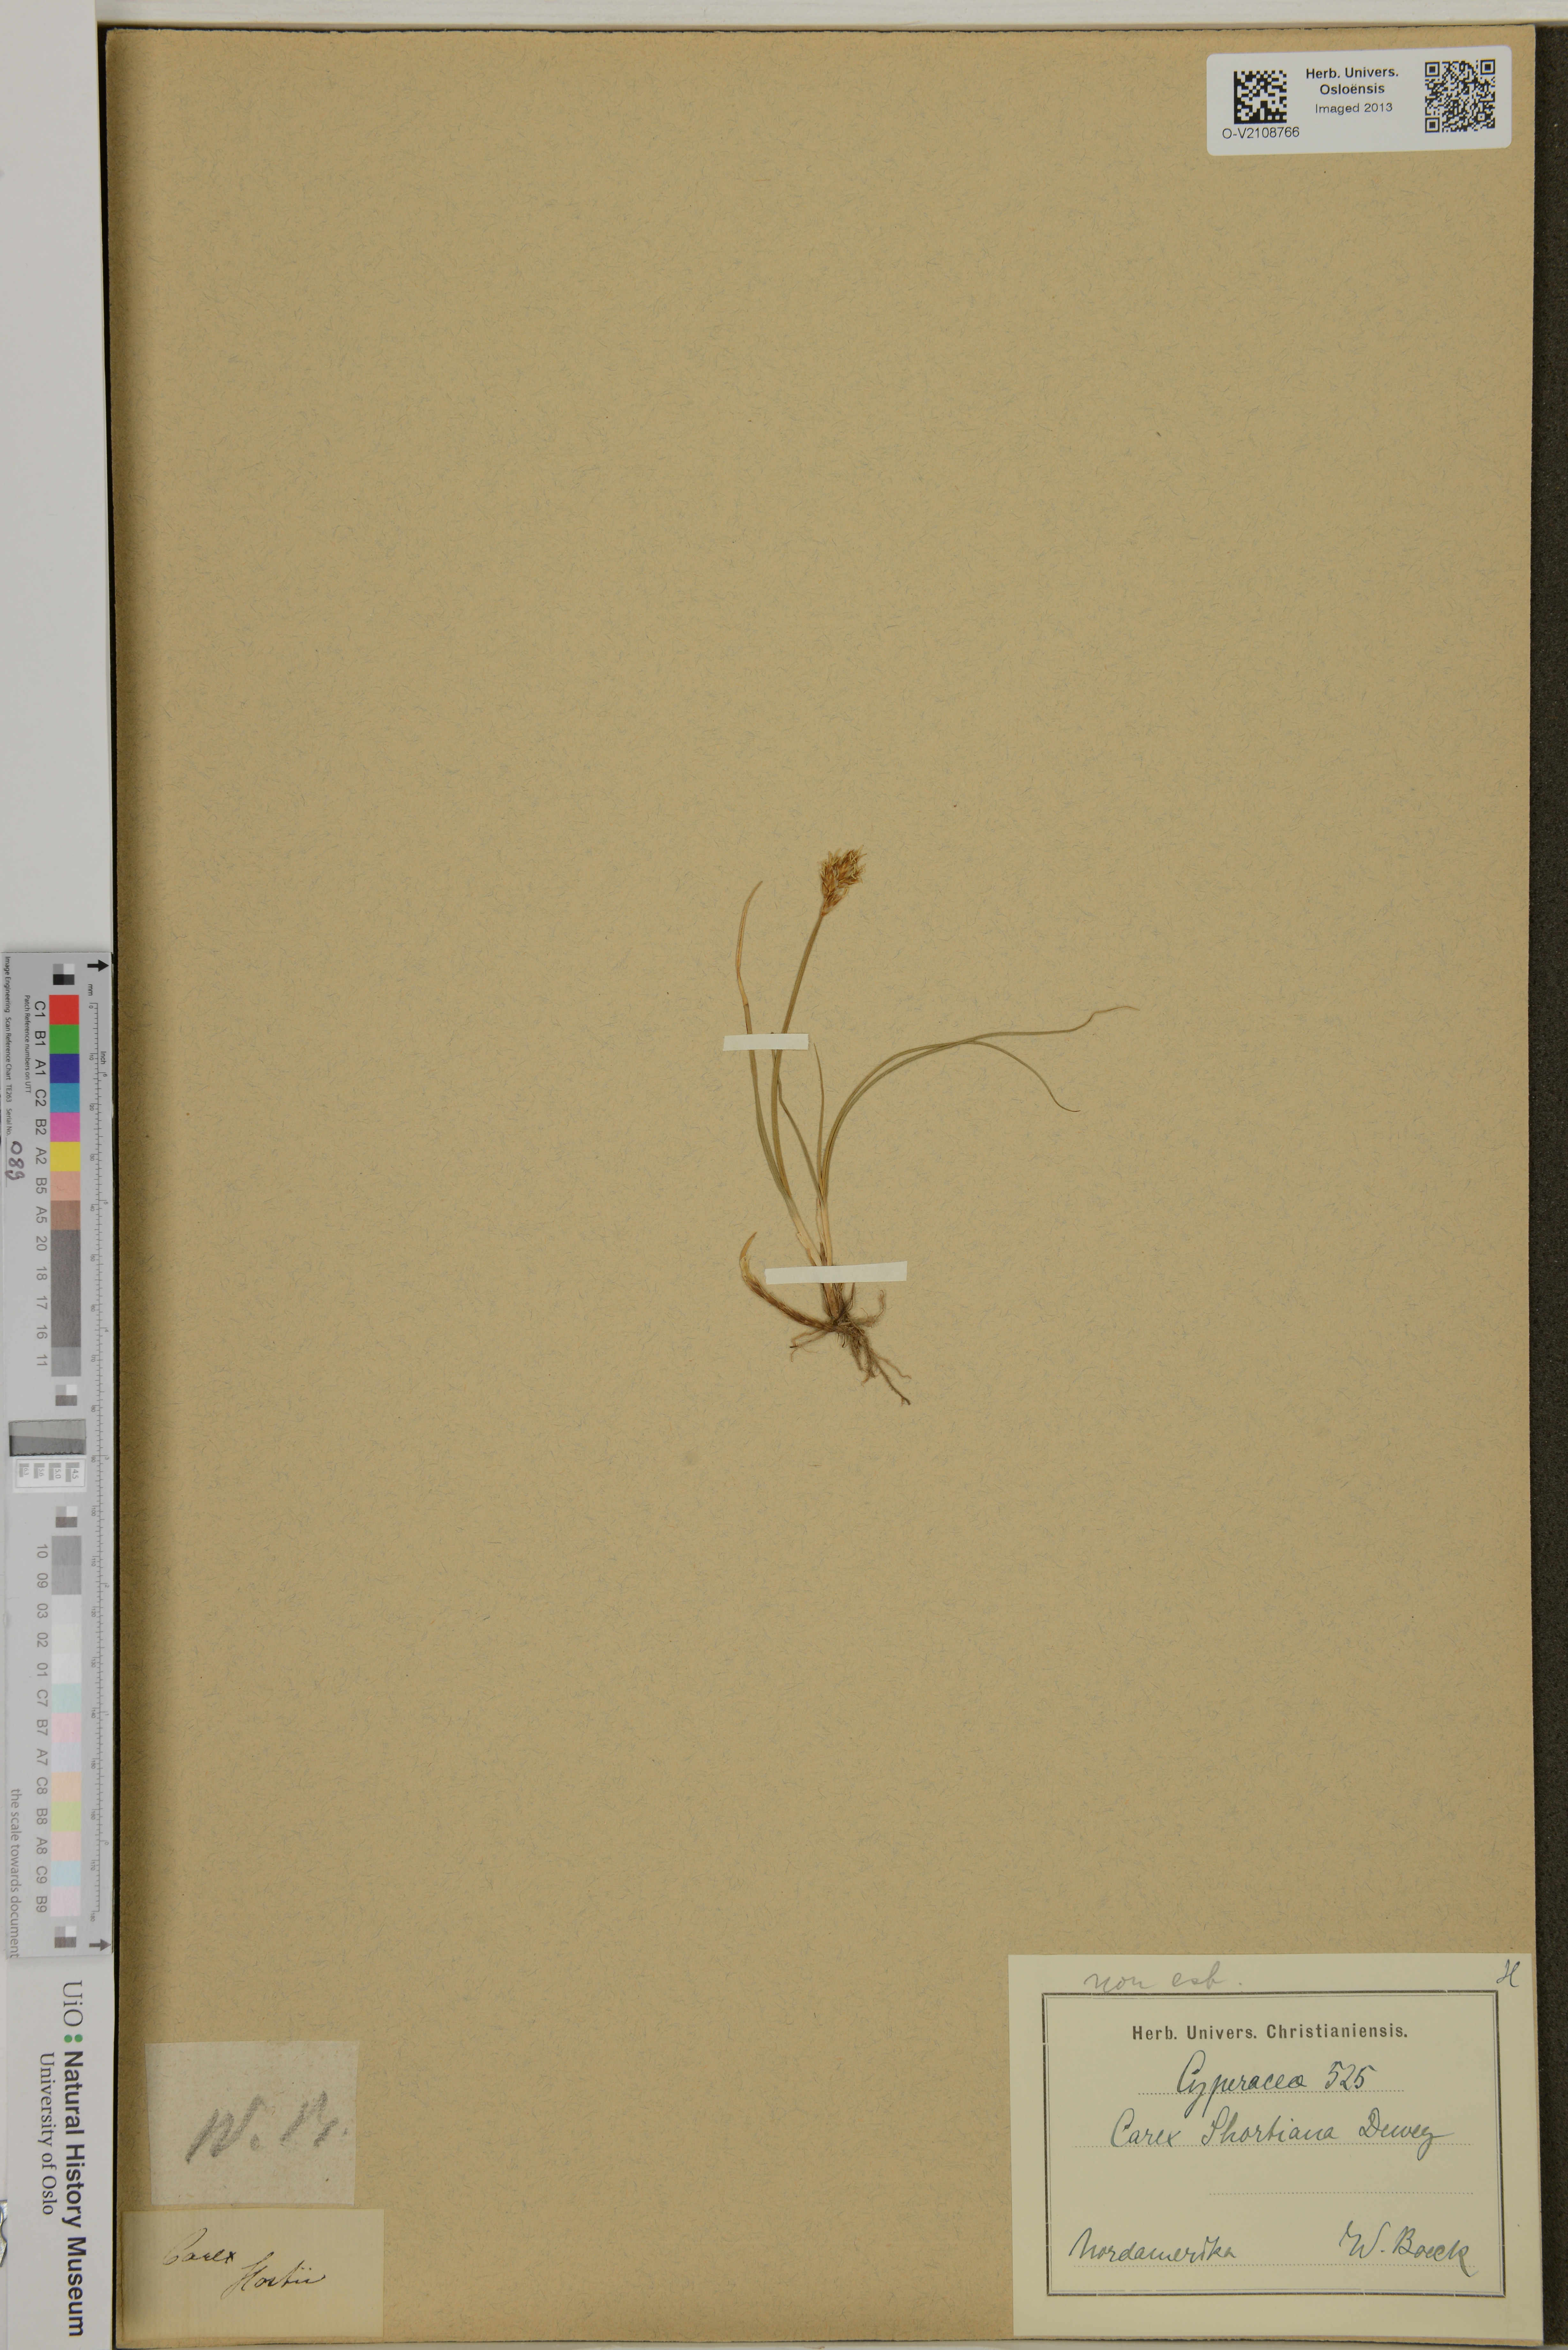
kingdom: Plantae
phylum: Tracheophyta
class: Liliopsida
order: Poales
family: Cyperaceae
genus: Carex
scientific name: Carex shortiana
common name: Short's sedge
